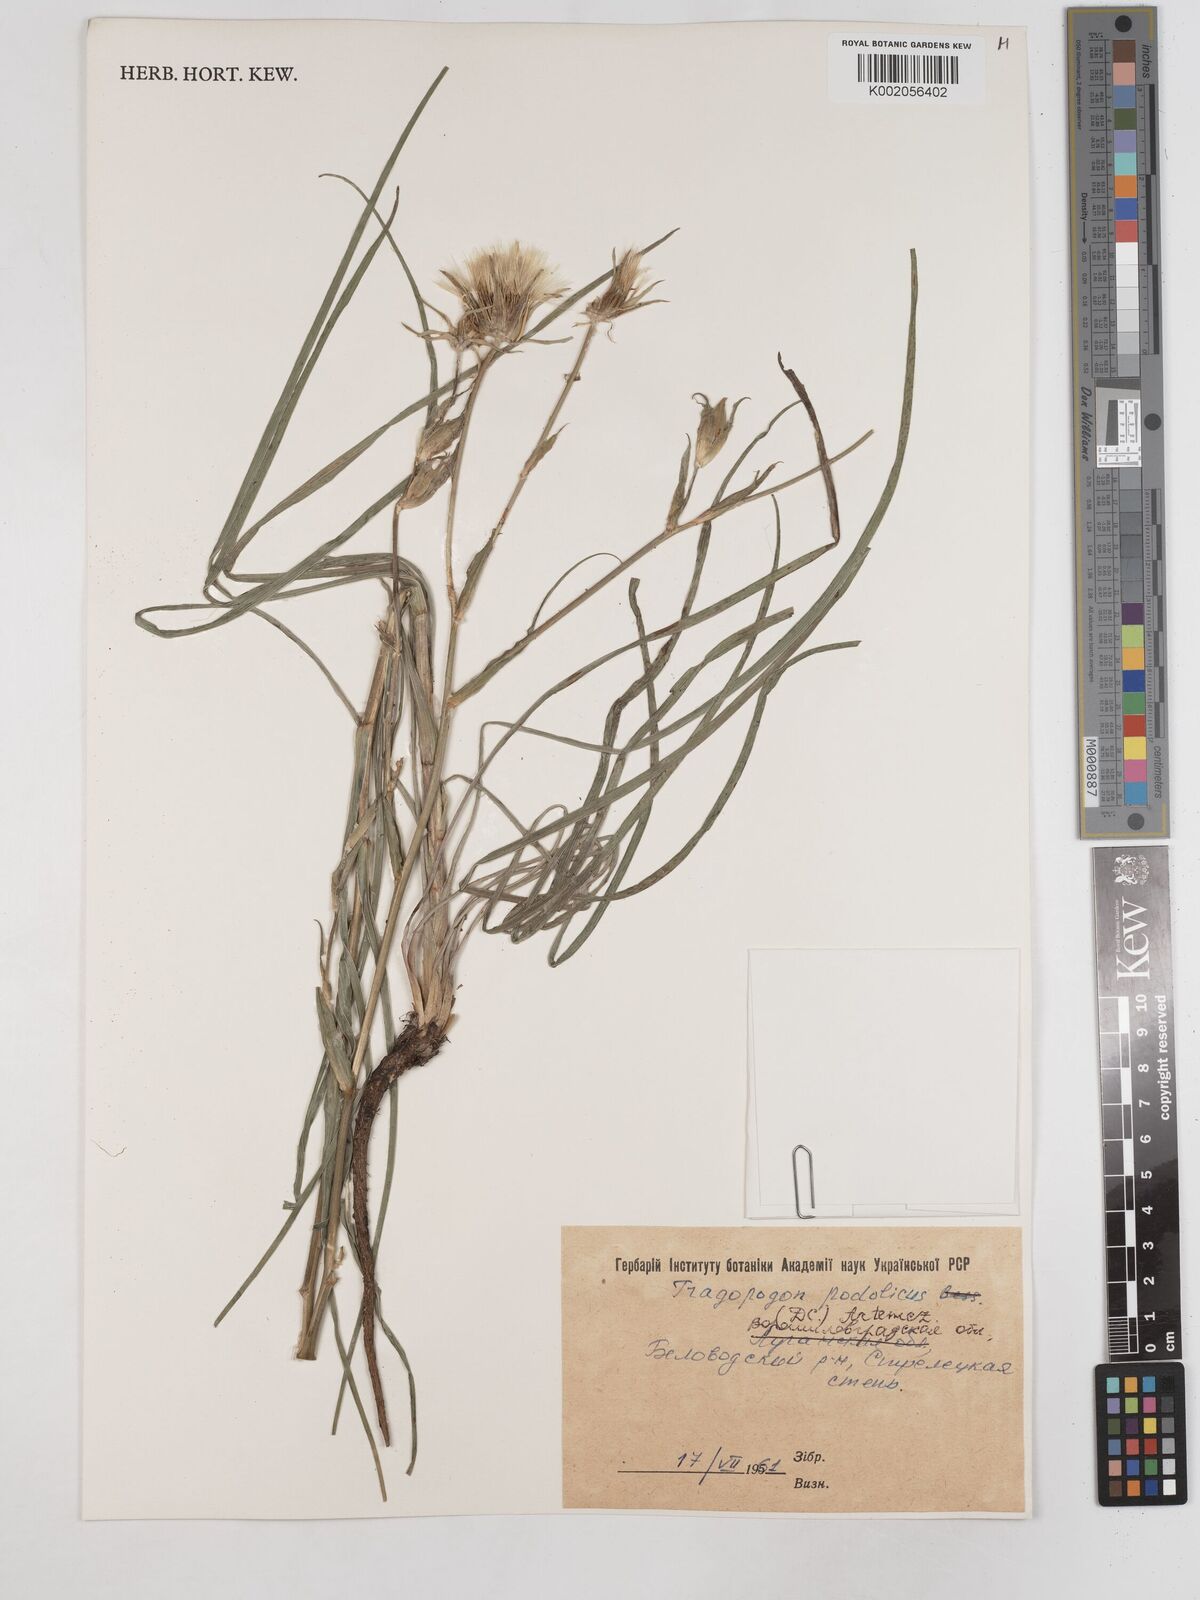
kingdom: Plantae
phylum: Tracheophyta
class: Magnoliopsida
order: Asterales
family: Asteraceae
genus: Tragopogon
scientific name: Tragopogon brevirostris
